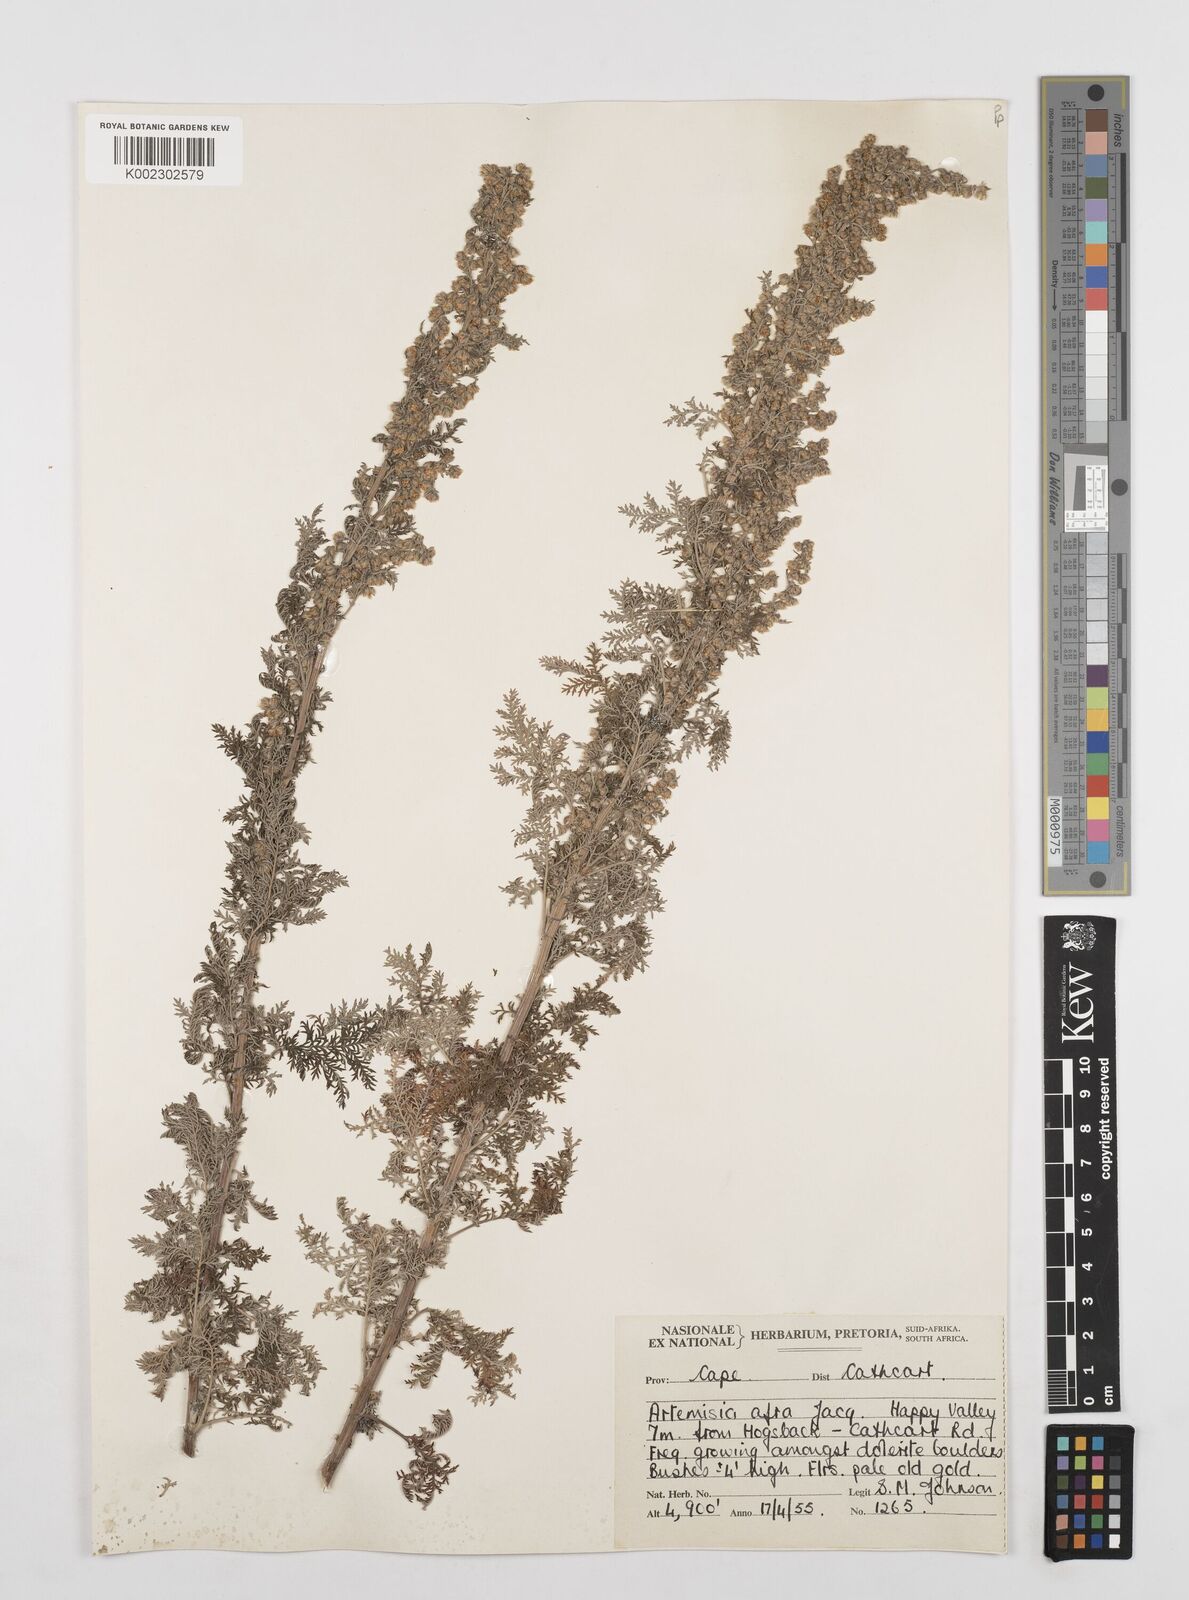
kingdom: Plantae
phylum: Tracheophyta
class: Magnoliopsida
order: Asterales
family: Asteraceae
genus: Artemisia
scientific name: Artemisia afra
